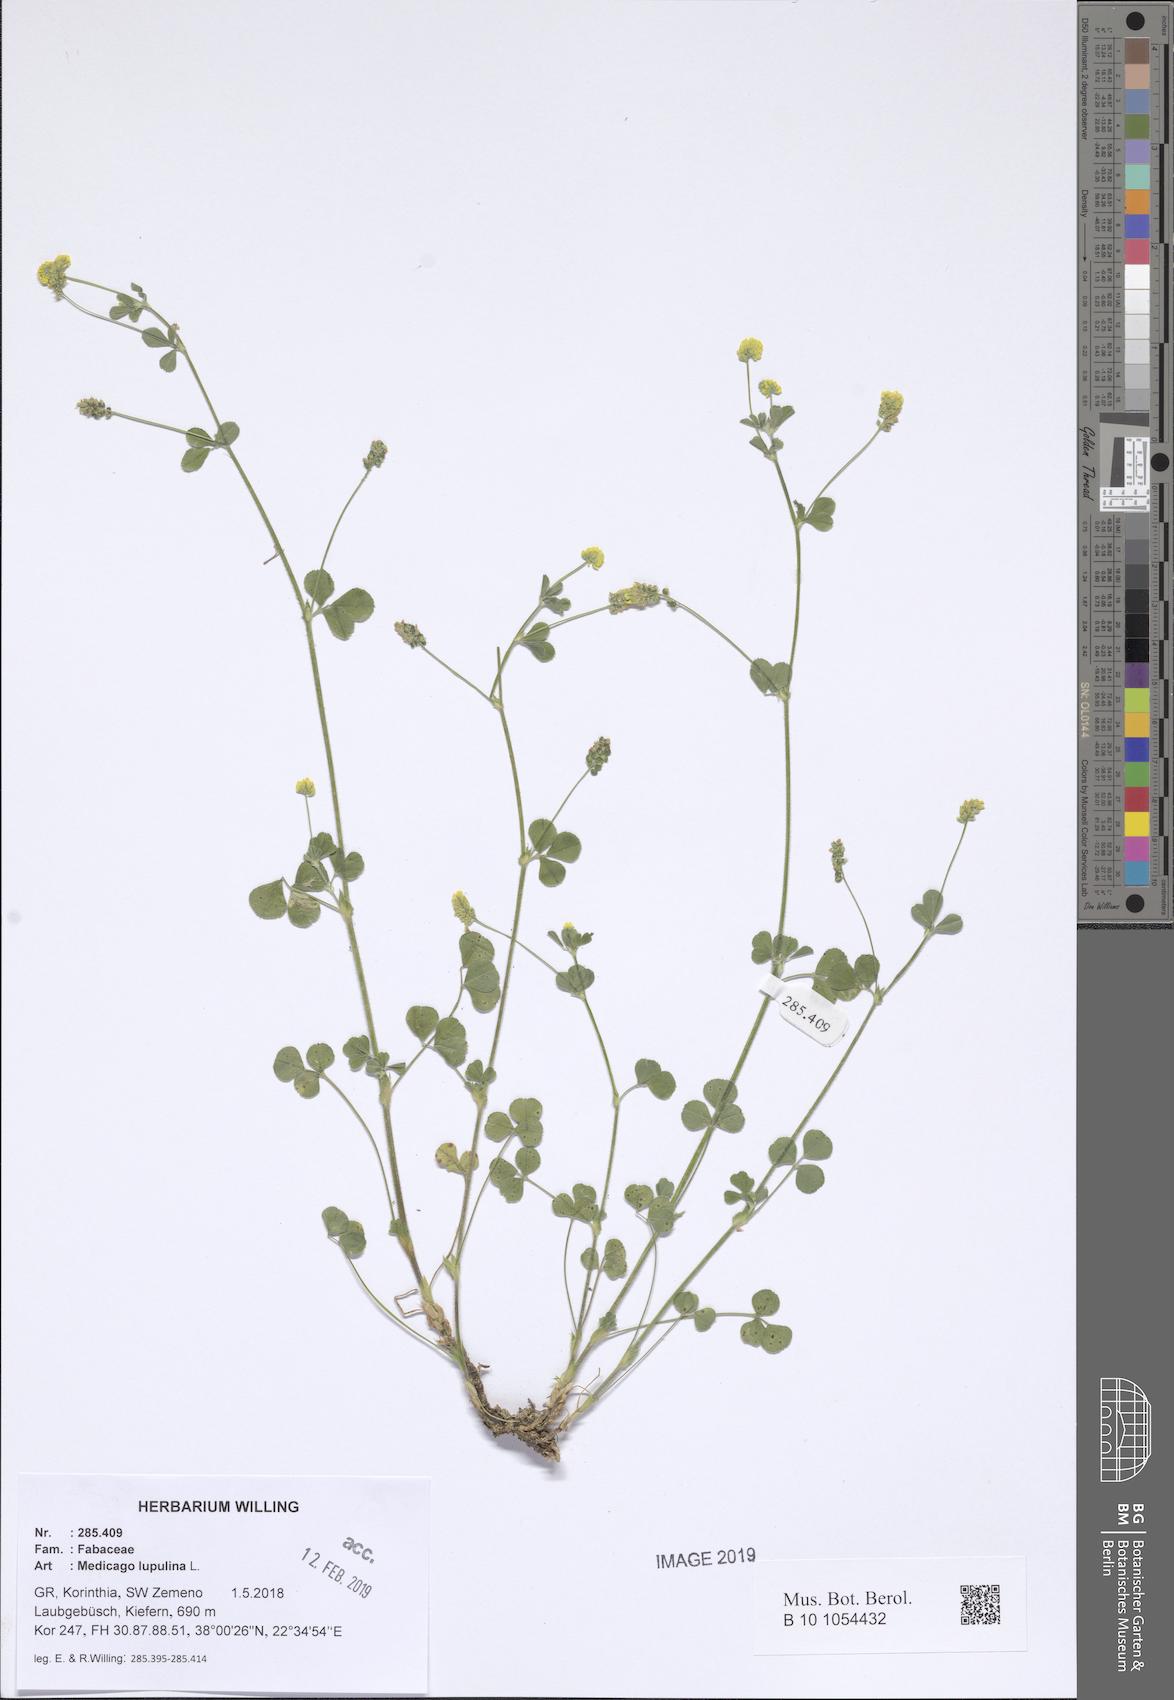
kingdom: Plantae
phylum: Tracheophyta
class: Magnoliopsida
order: Fabales
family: Fabaceae
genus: Medicago
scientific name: Medicago lupulina
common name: Black medick
